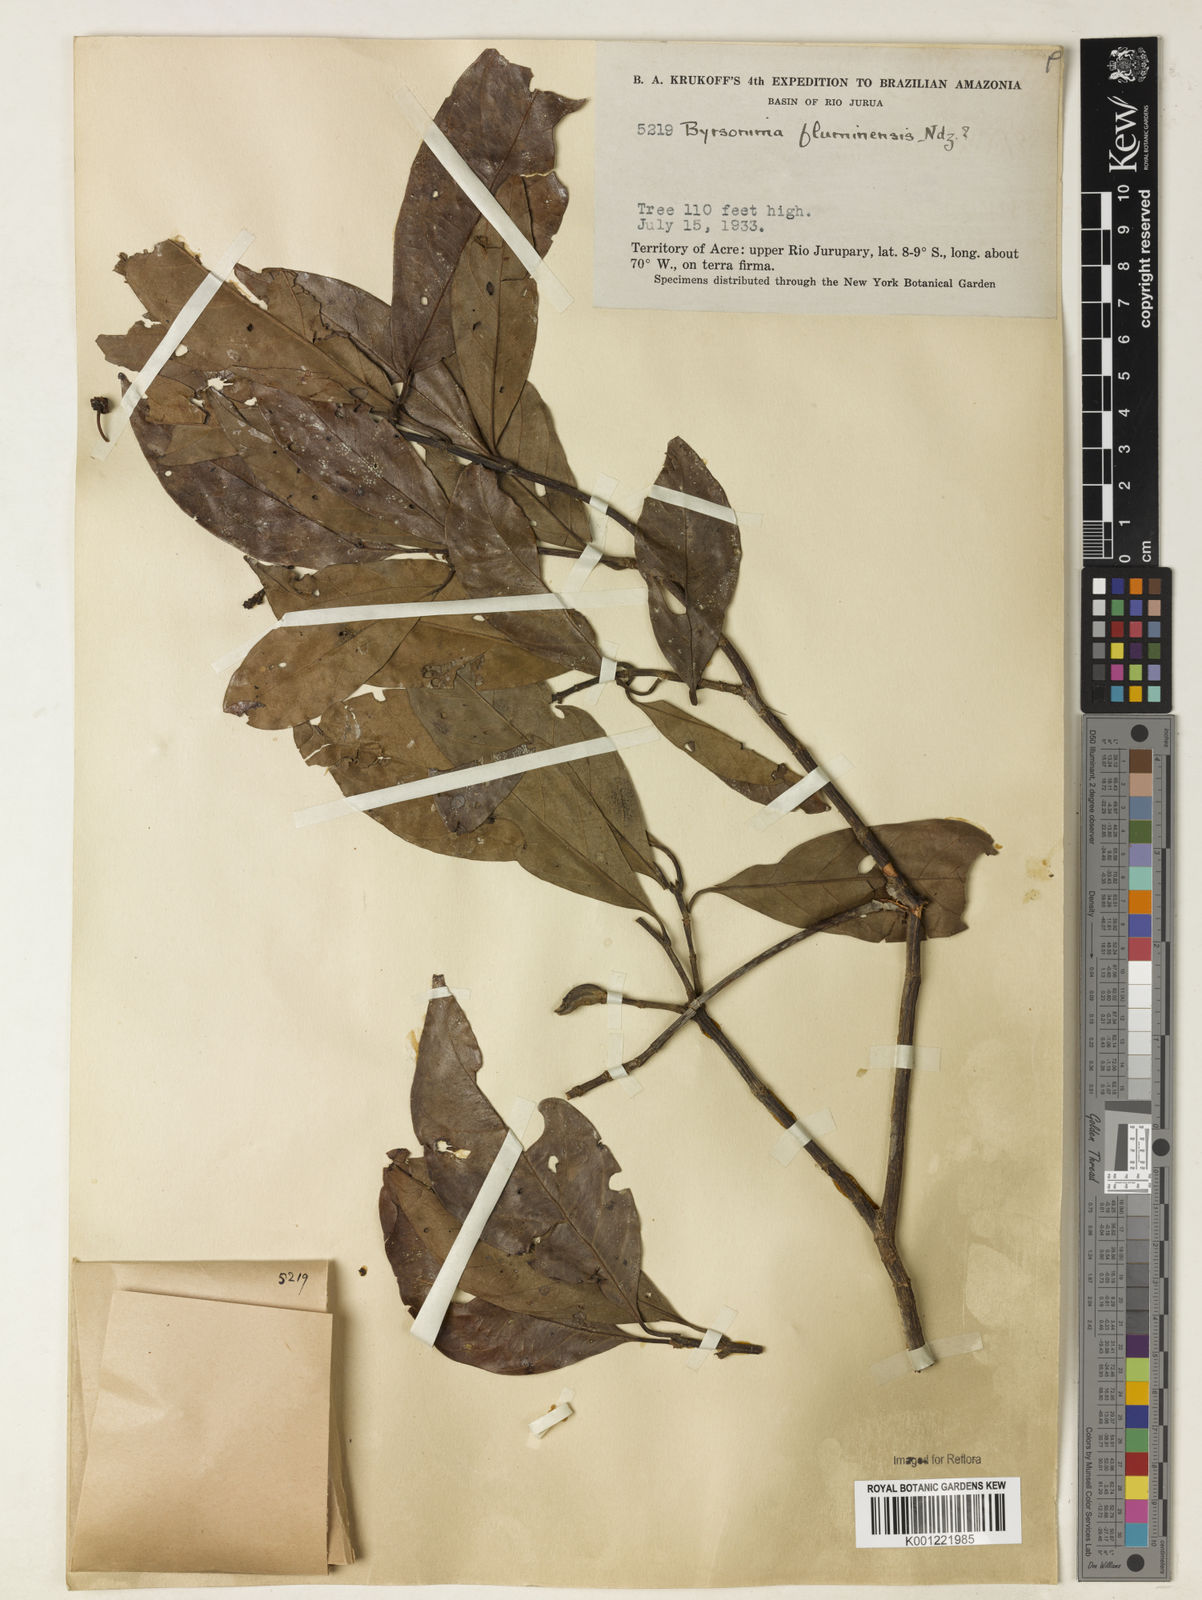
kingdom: Plantae
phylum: Tracheophyta
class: Magnoliopsida
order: Malpighiales
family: Malpighiaceae
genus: Byrsonima
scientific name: Byrsonima japurensis
